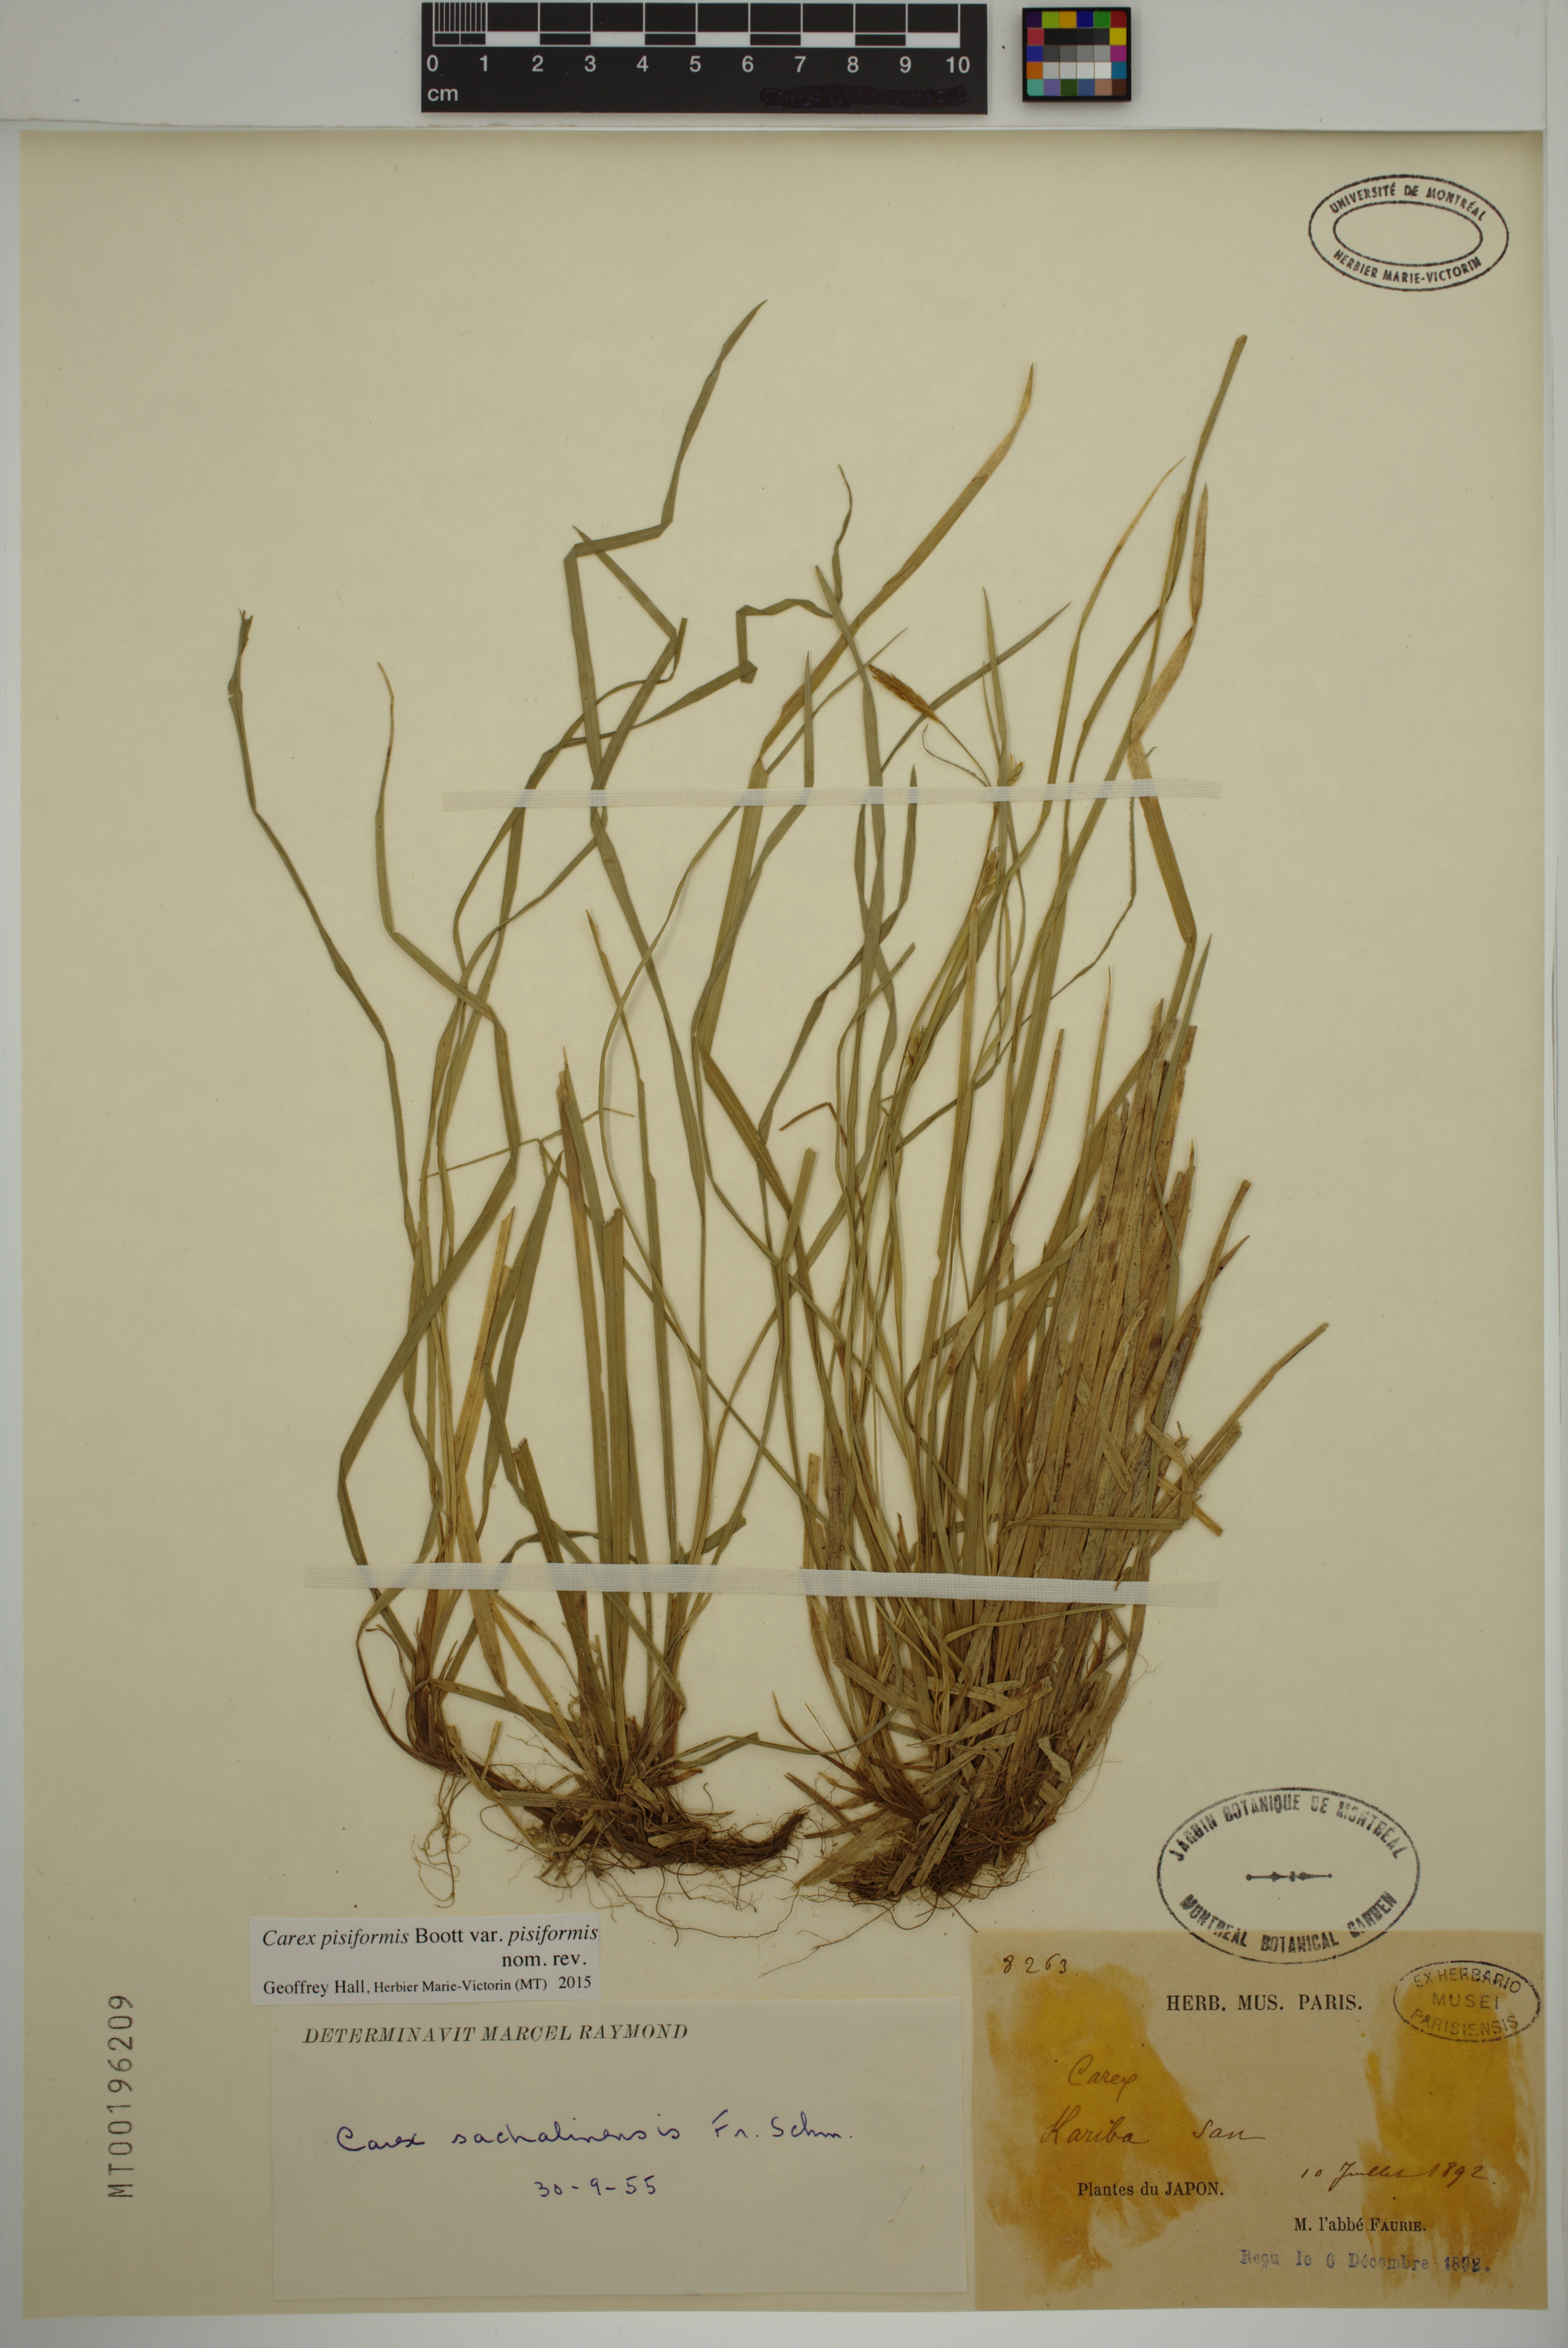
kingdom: Plantae
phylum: Tracheophyta
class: Liliopsida
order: Poales
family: Cyperaceae
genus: Carex
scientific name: Carex pisiformis
